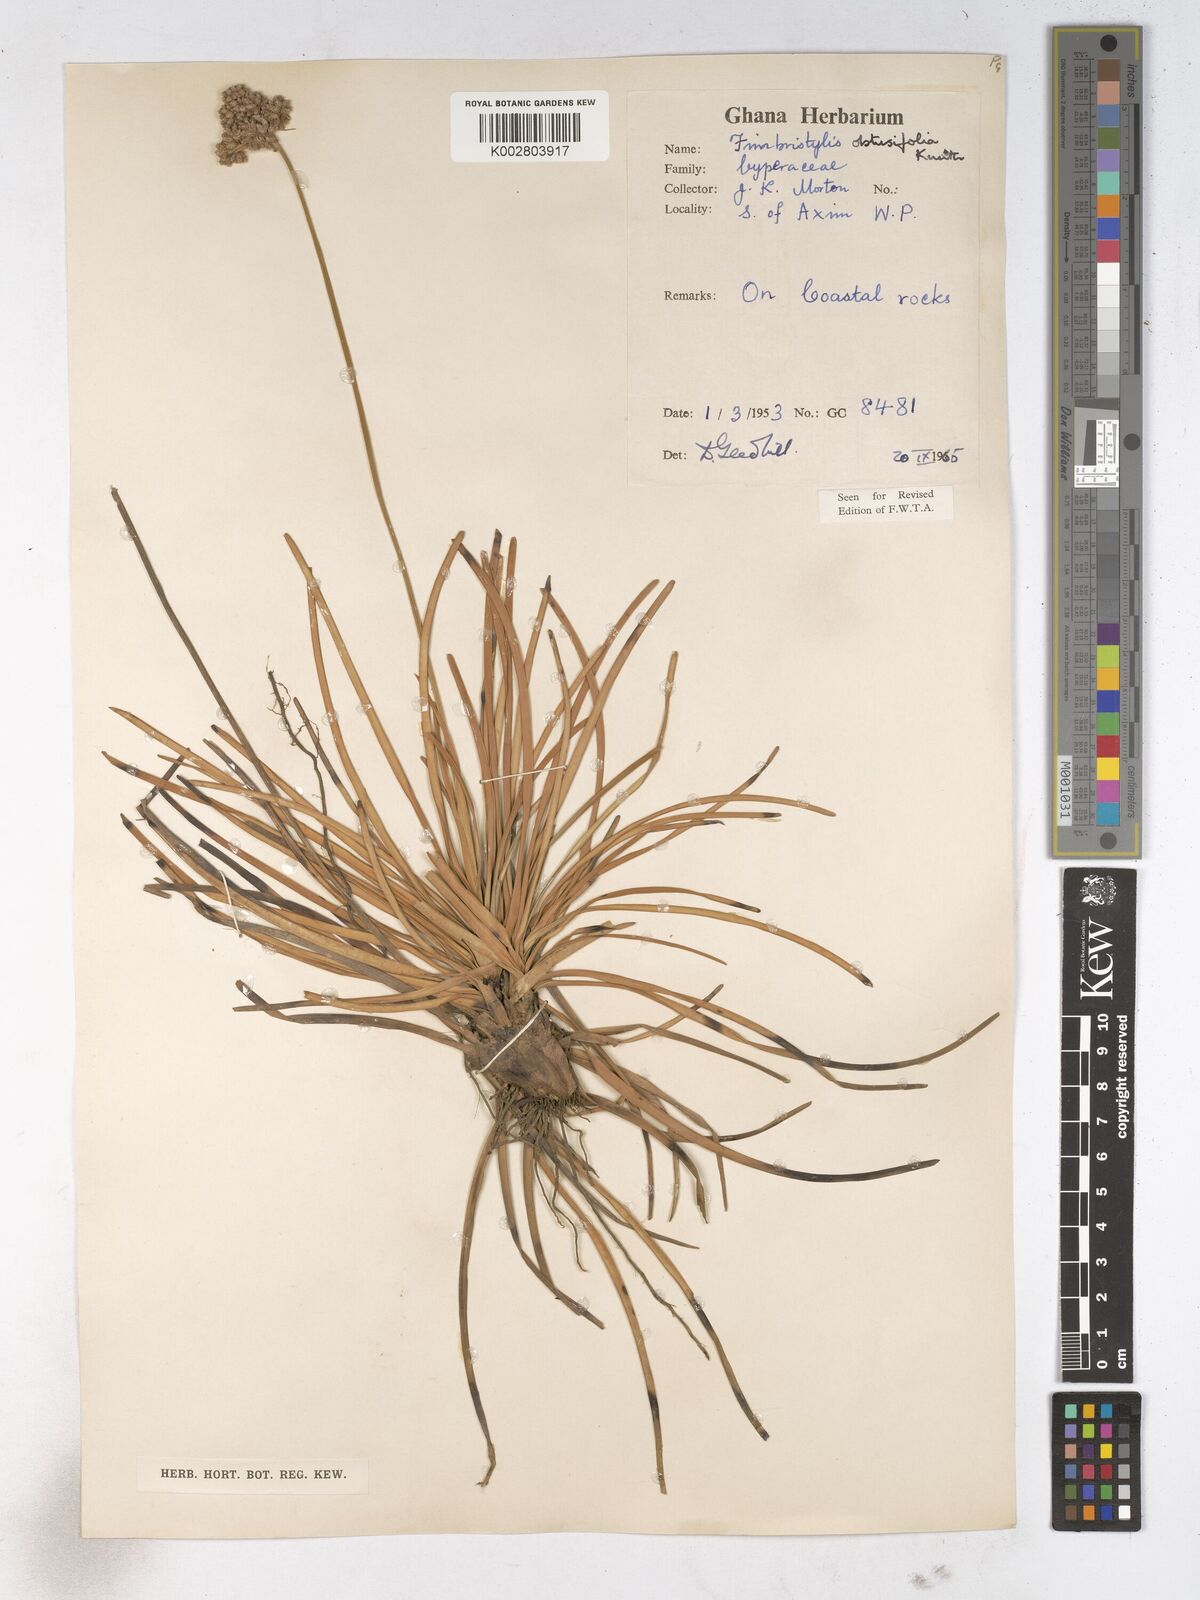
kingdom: Plantae
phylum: Tracheophyta
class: Liliopsida
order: Poales
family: Cyperaceae
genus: Fimbristylis
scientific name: Fimbristylis cymosa
